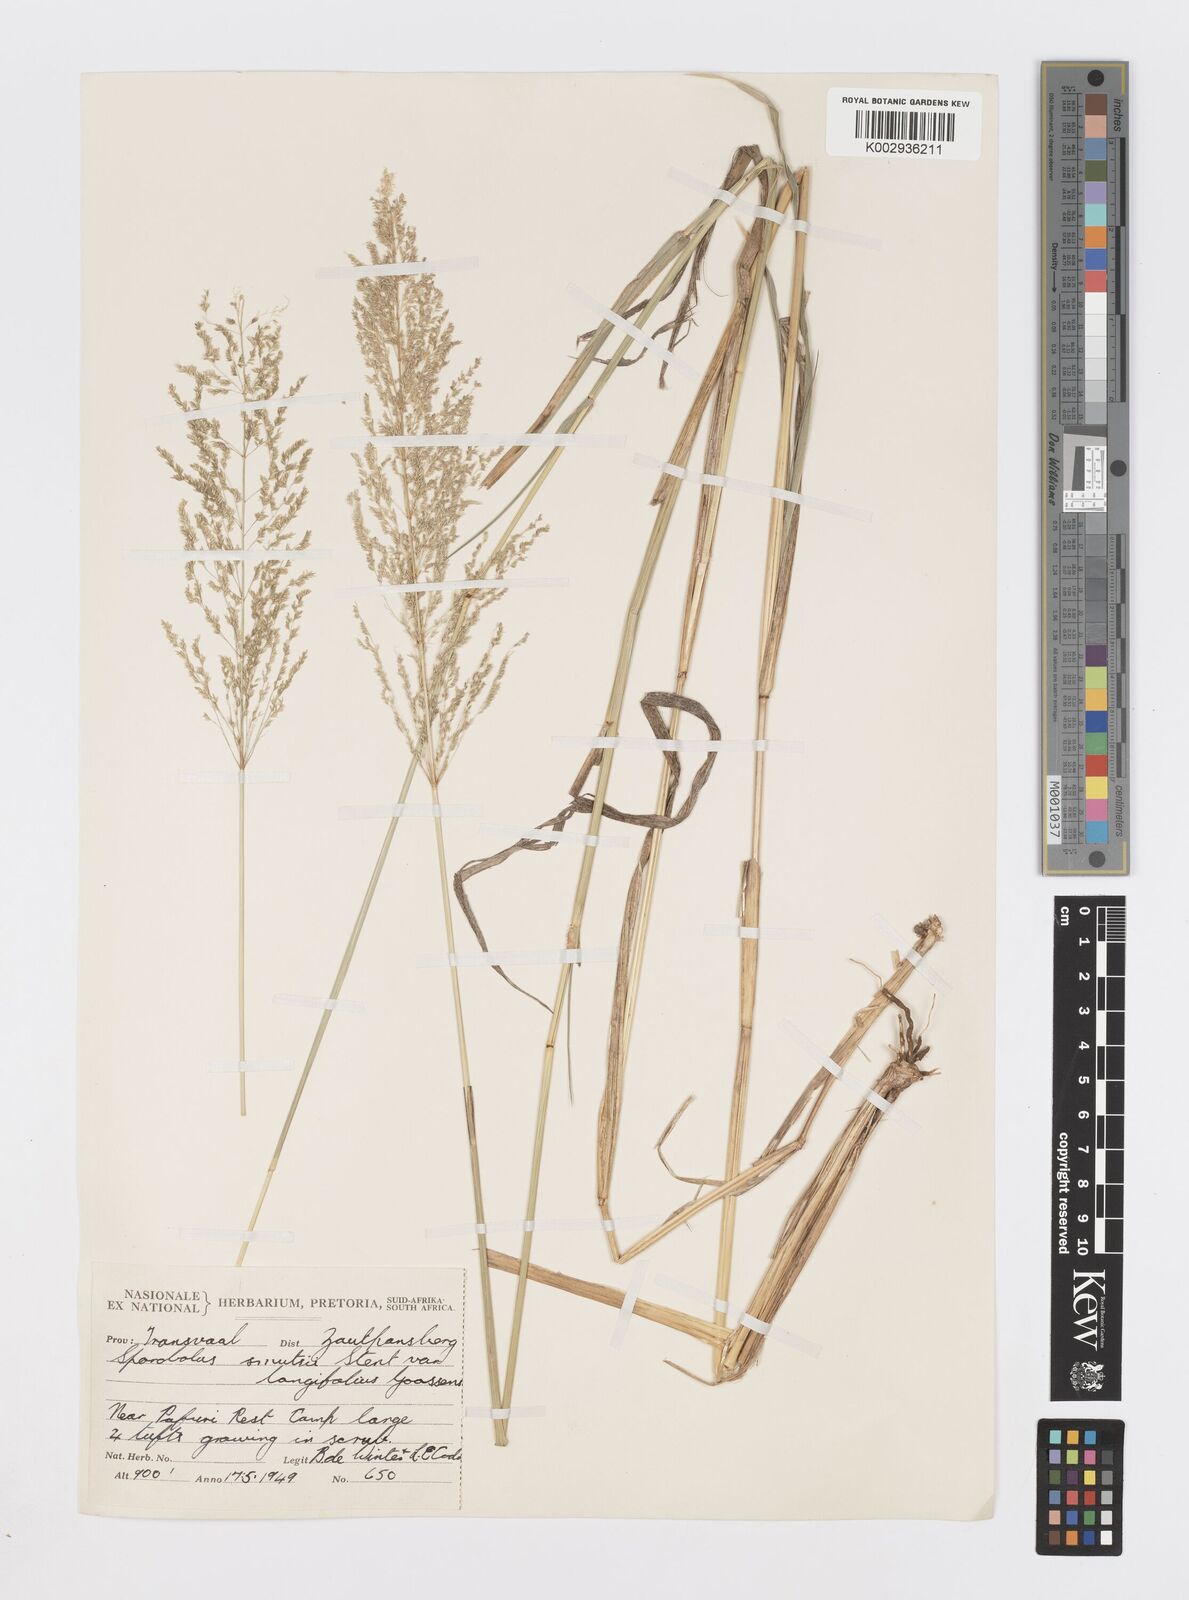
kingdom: Plantae
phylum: Tracheophyta
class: Liliopsida
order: Poales
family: Poaceae
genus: Sporobolus
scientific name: Sporobolus ioclados
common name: Pan dropseed
